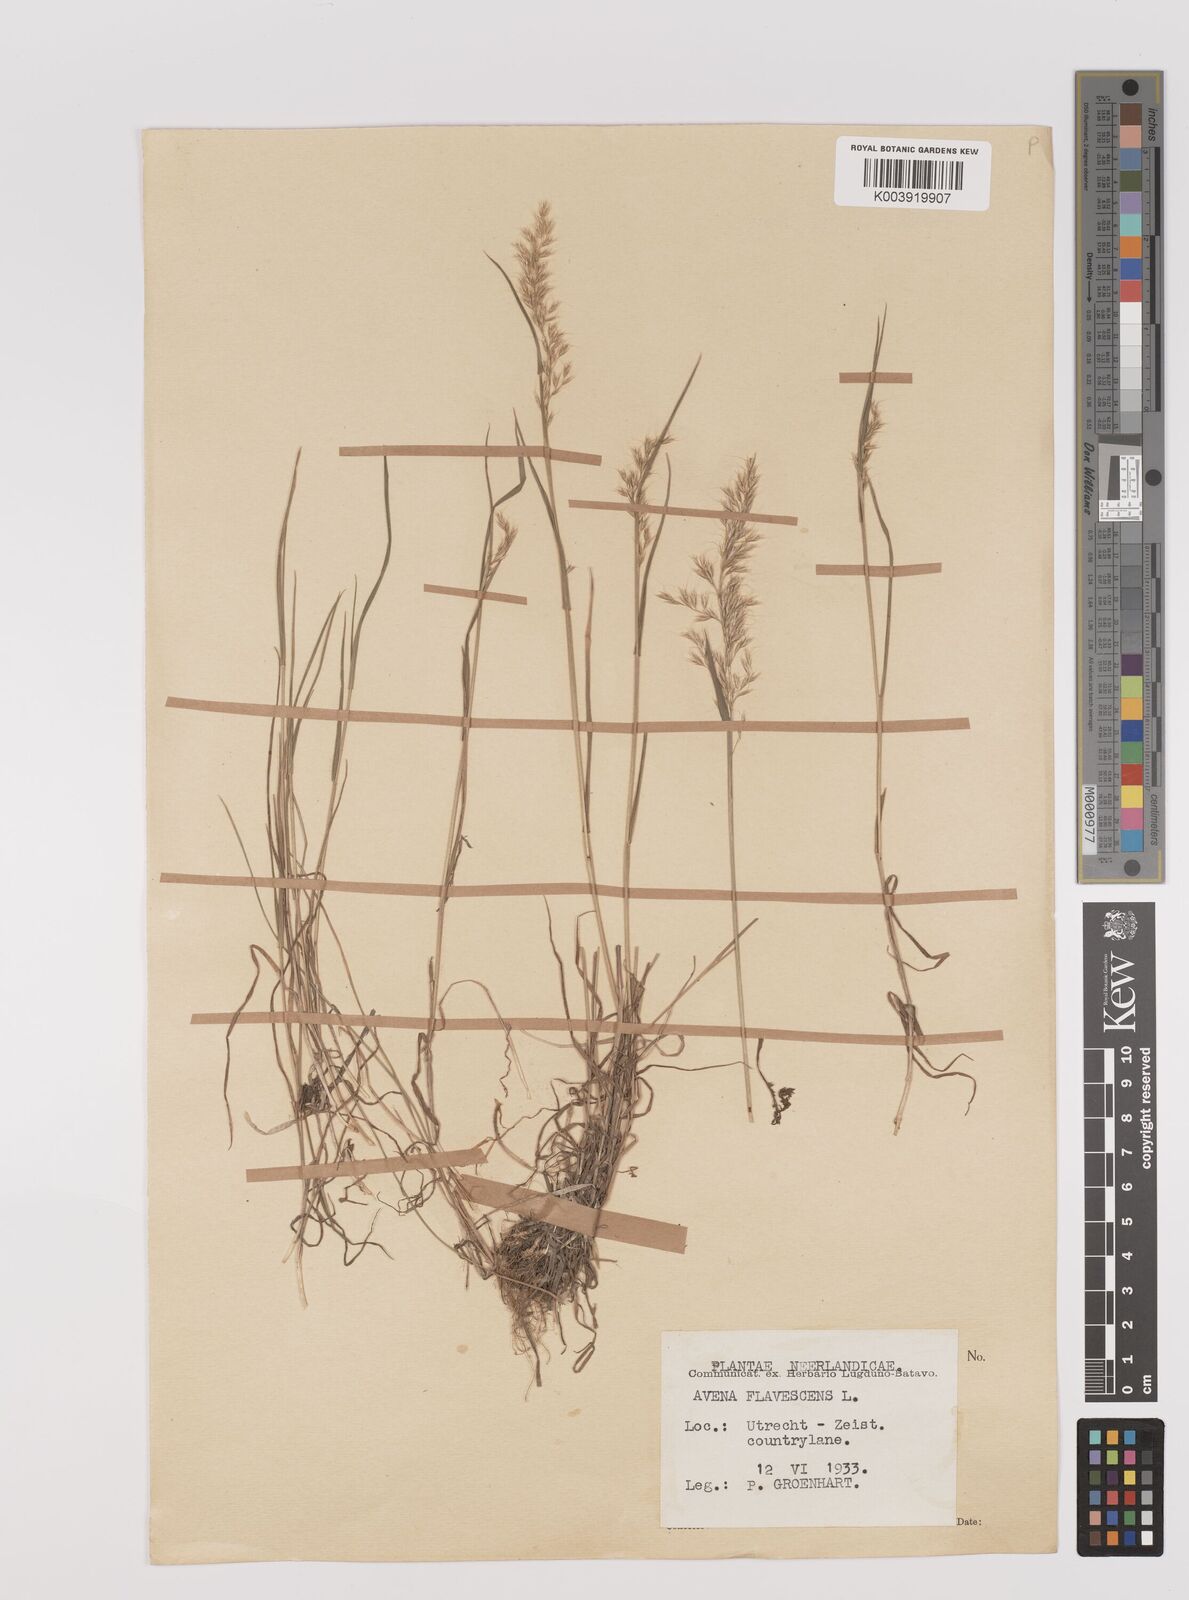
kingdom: Plantae
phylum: Tracheophyta
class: Liliopsida
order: Poales
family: Poaceae
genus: Trisetum
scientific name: Trisetum flavescens
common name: Yellow oat-grass
